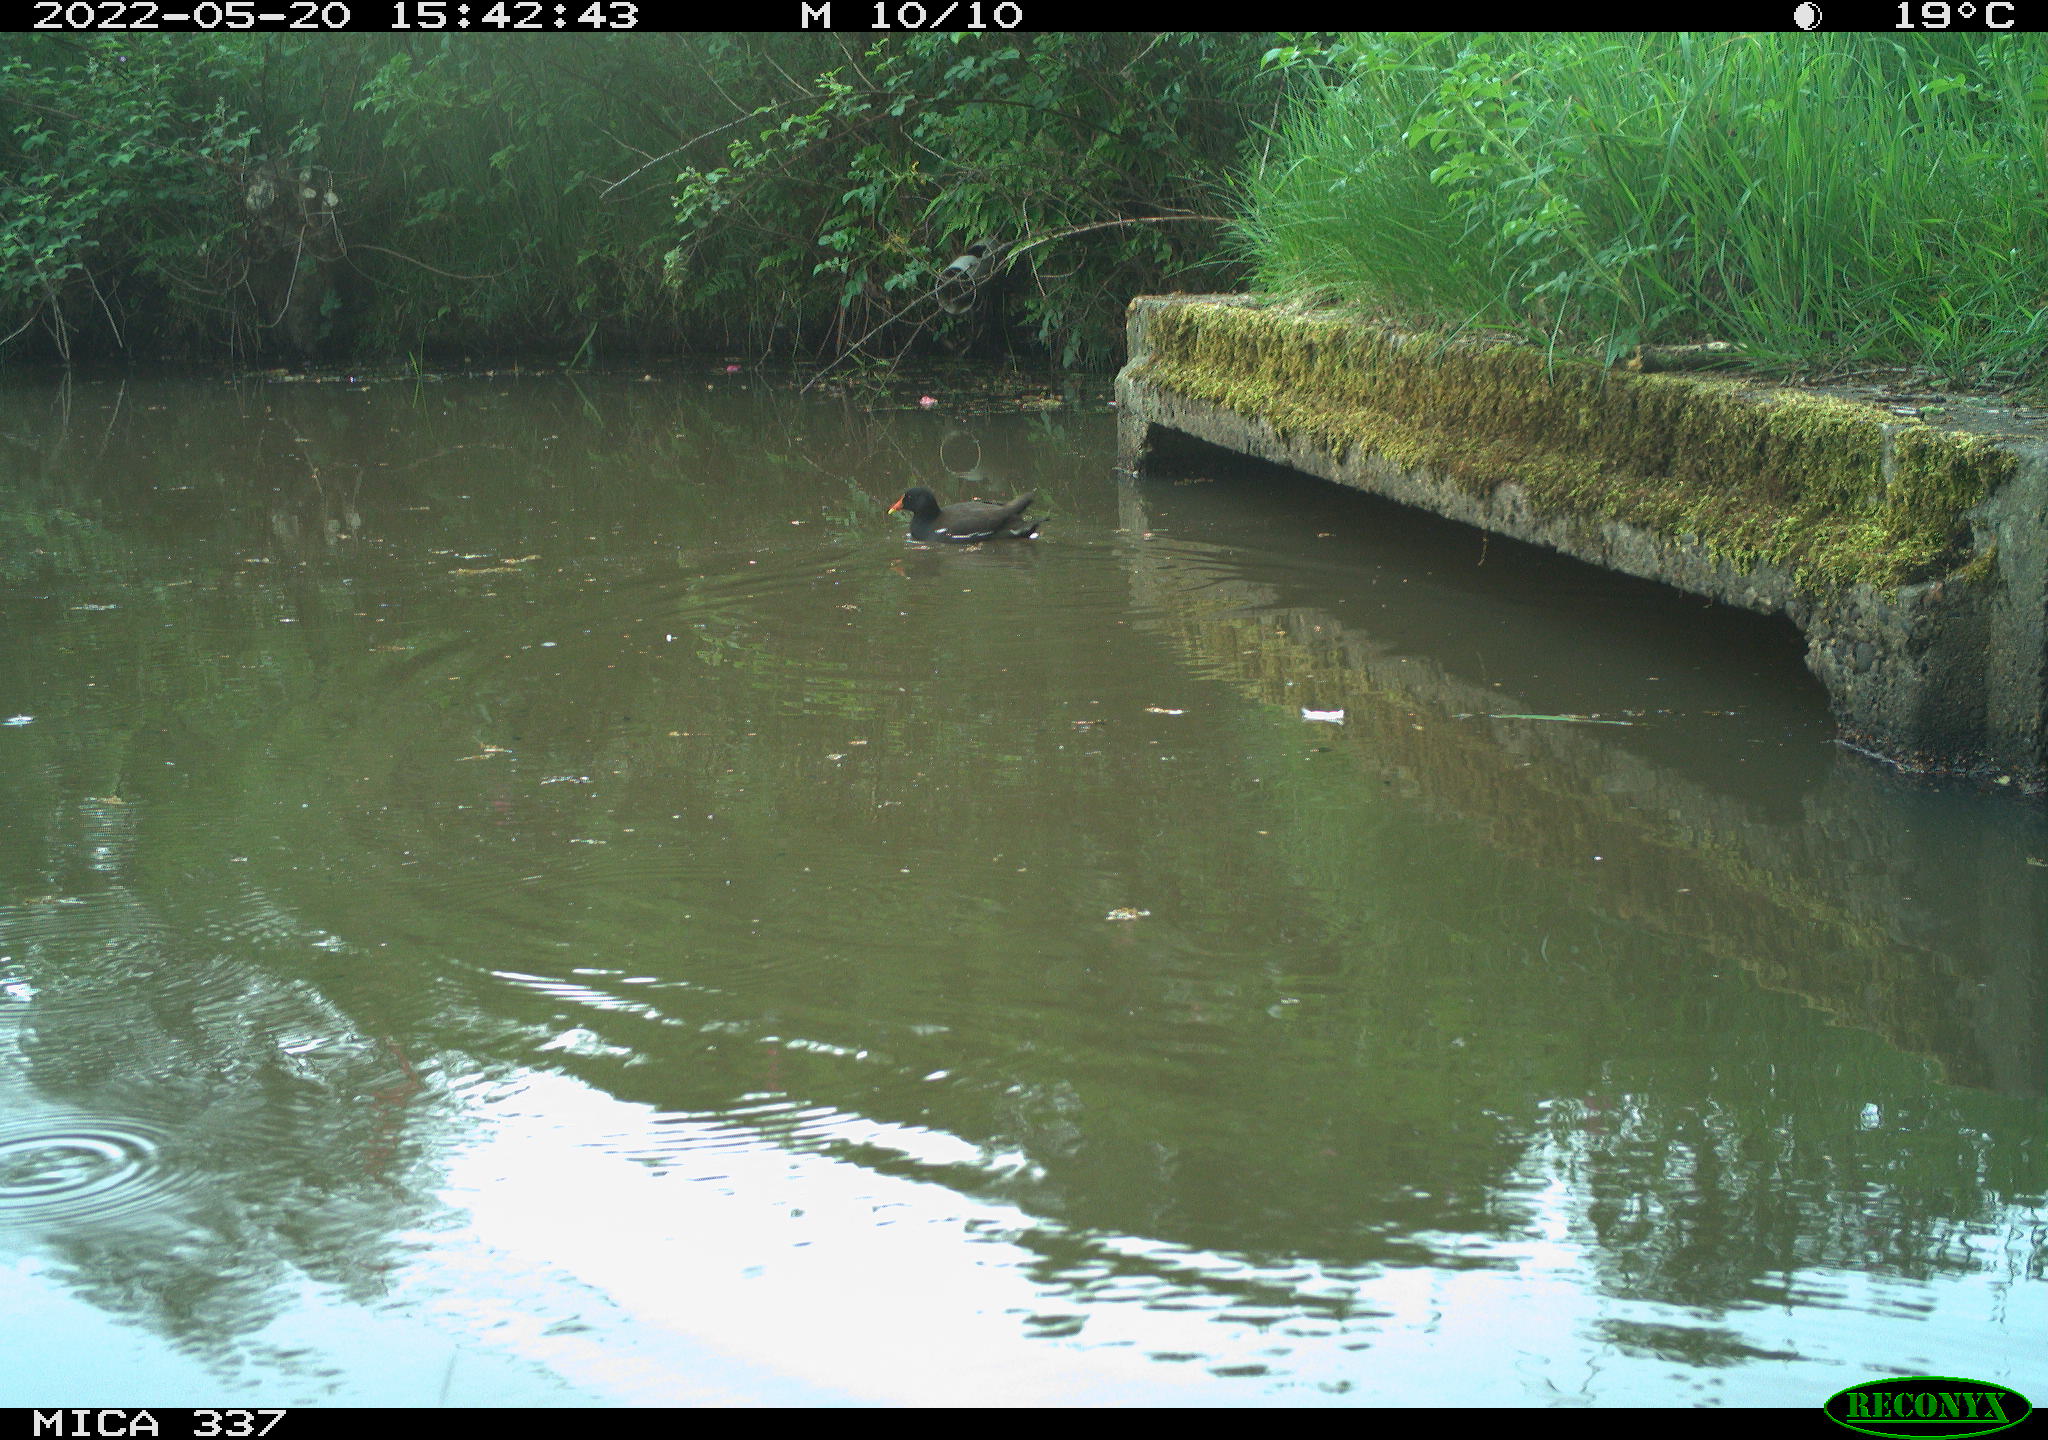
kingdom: Animalia
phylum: Chordata
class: Aves
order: Gruiformes
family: Rallidae
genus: Gallinula
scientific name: Gallinula chloropus
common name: Common moorhen
